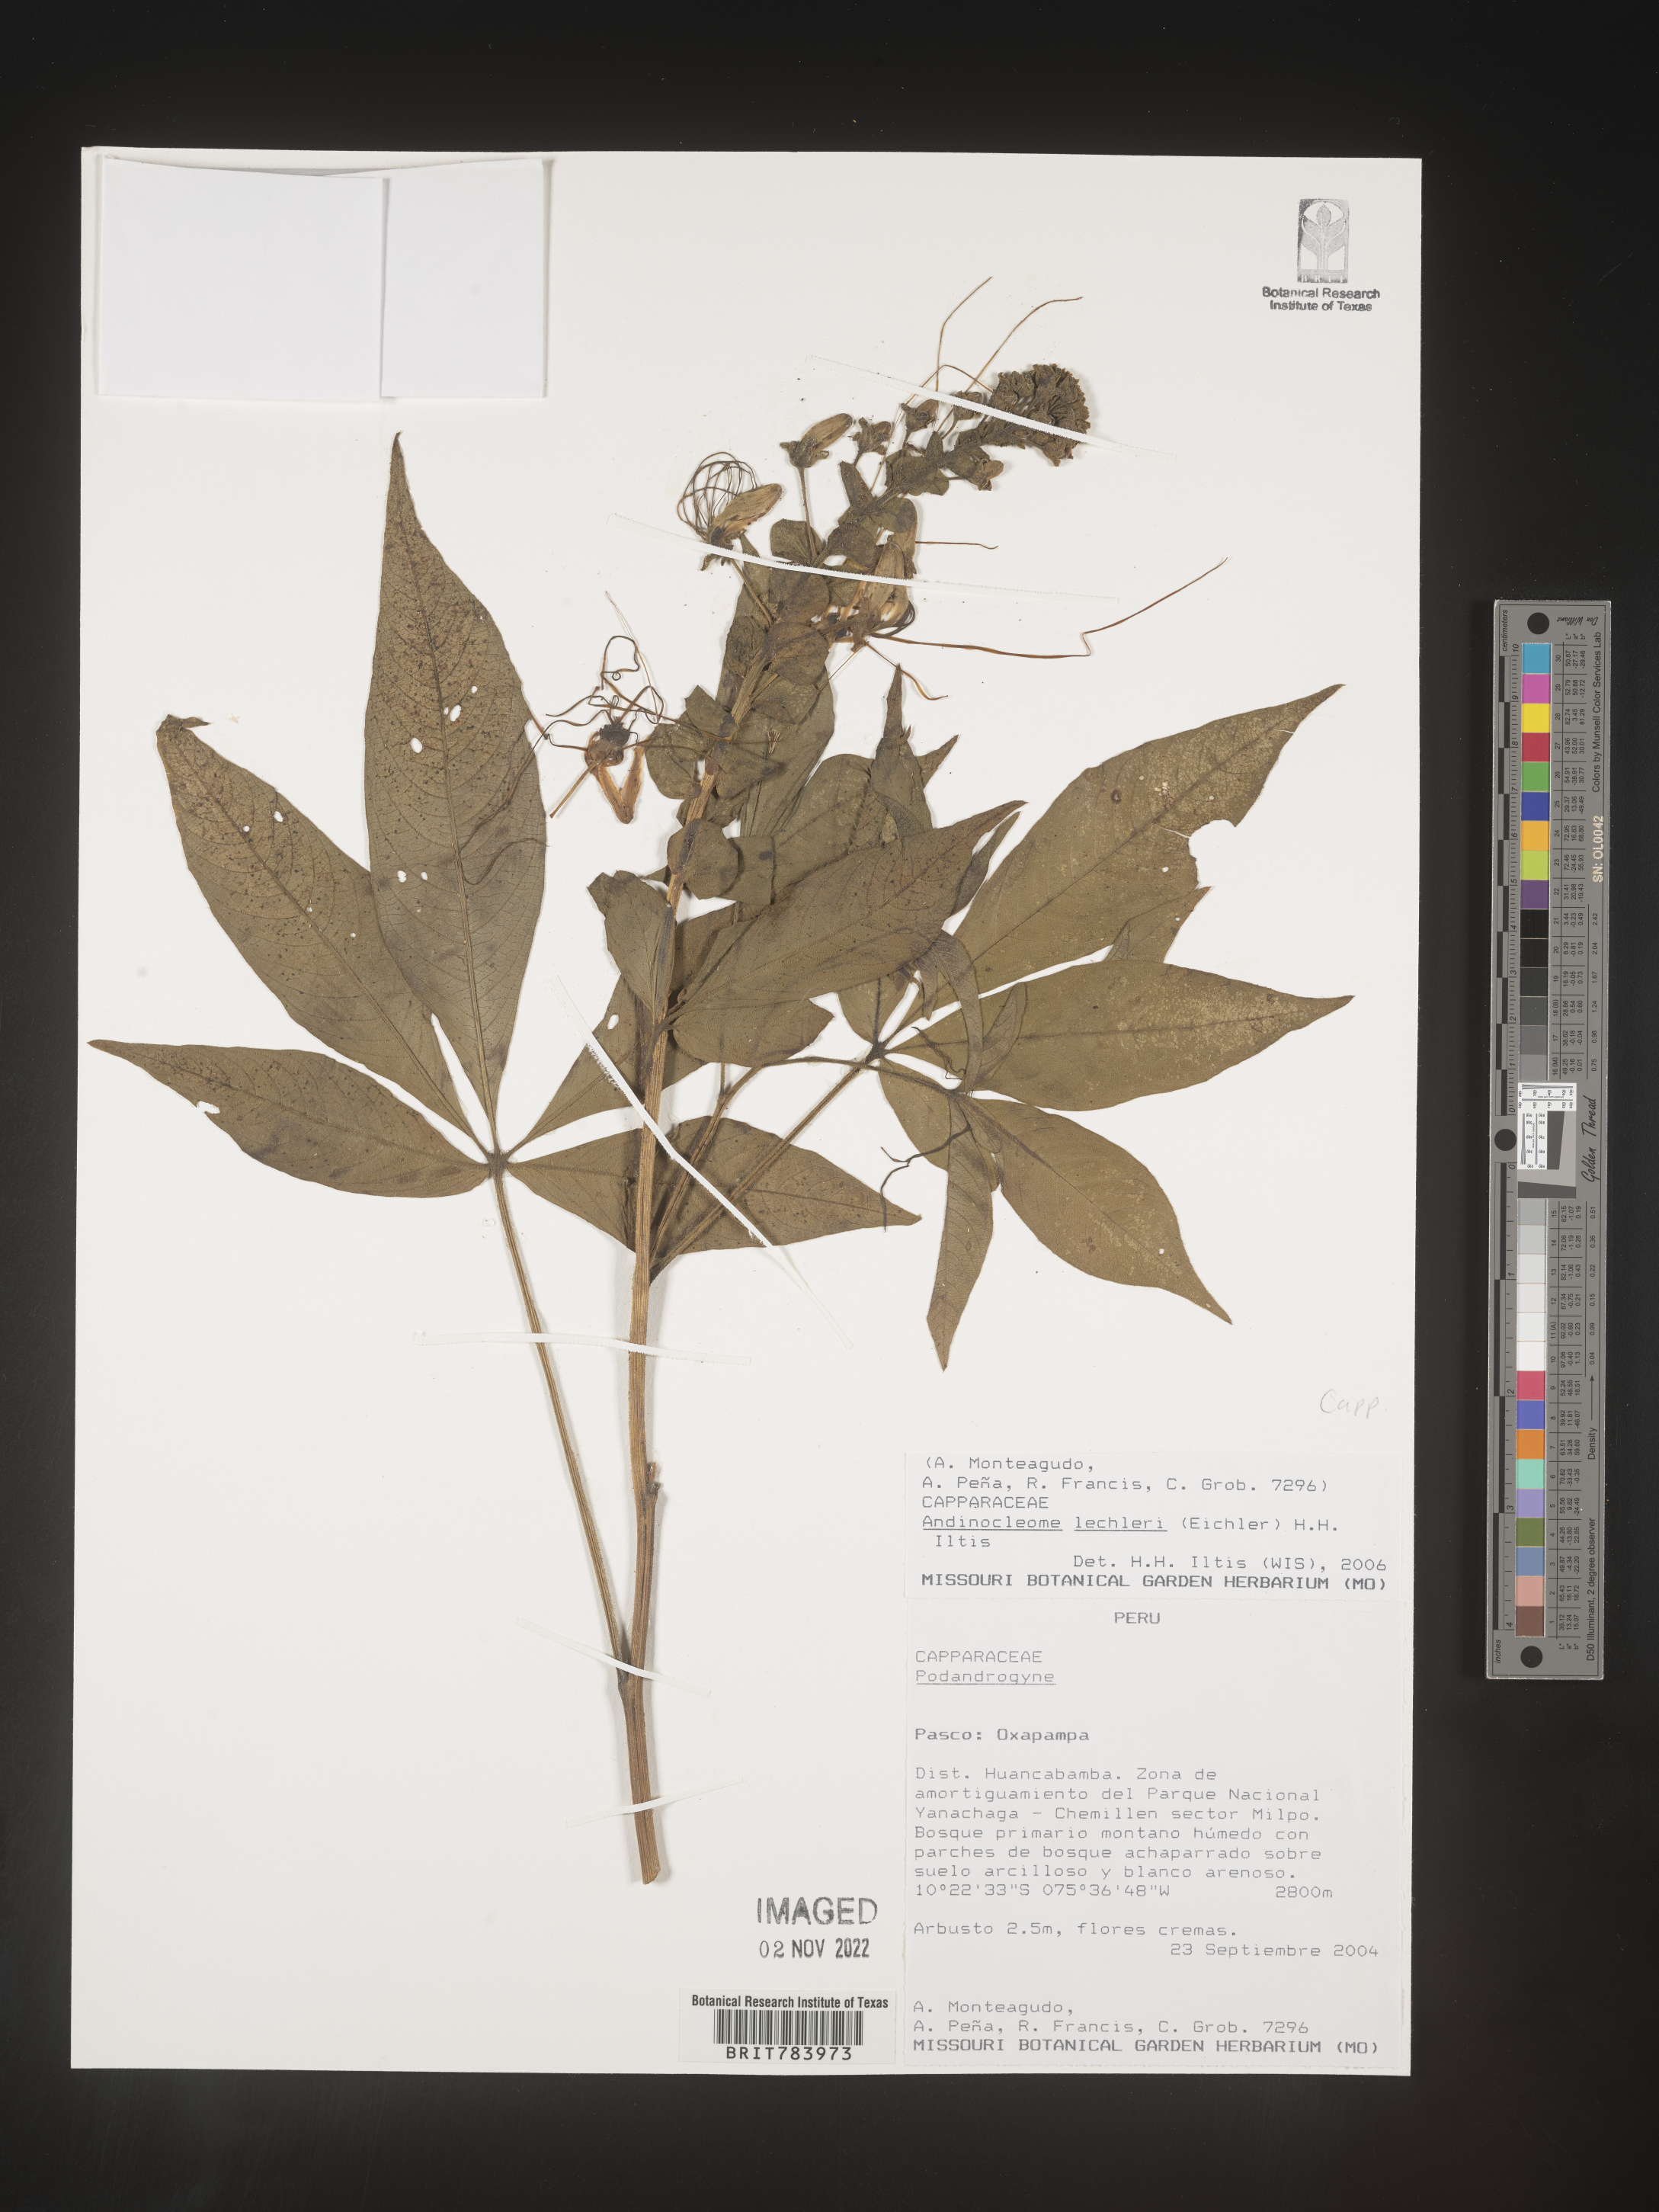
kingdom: Plantae
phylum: Tracheophyta
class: Magnoliopsida
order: Brassicales
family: Cleomaceae
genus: Andinocleome
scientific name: Andinocleome
